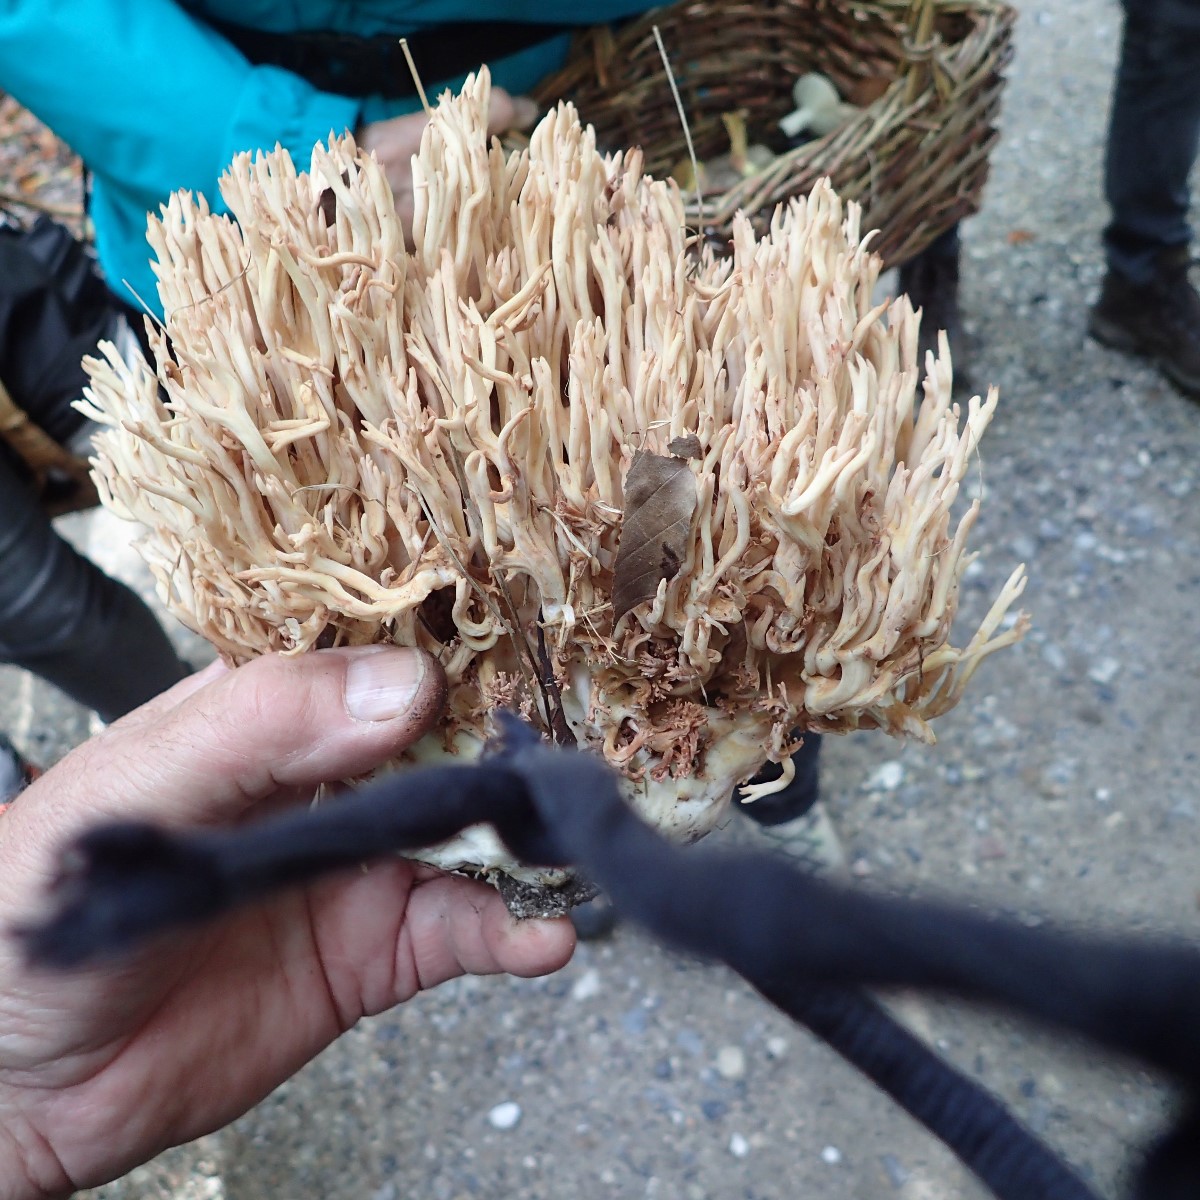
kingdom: Fungi
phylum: Basidiomycota
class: Agaricomycetes
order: Gomphales
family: Gomphaceae
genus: Ramaria
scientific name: Ramaria
